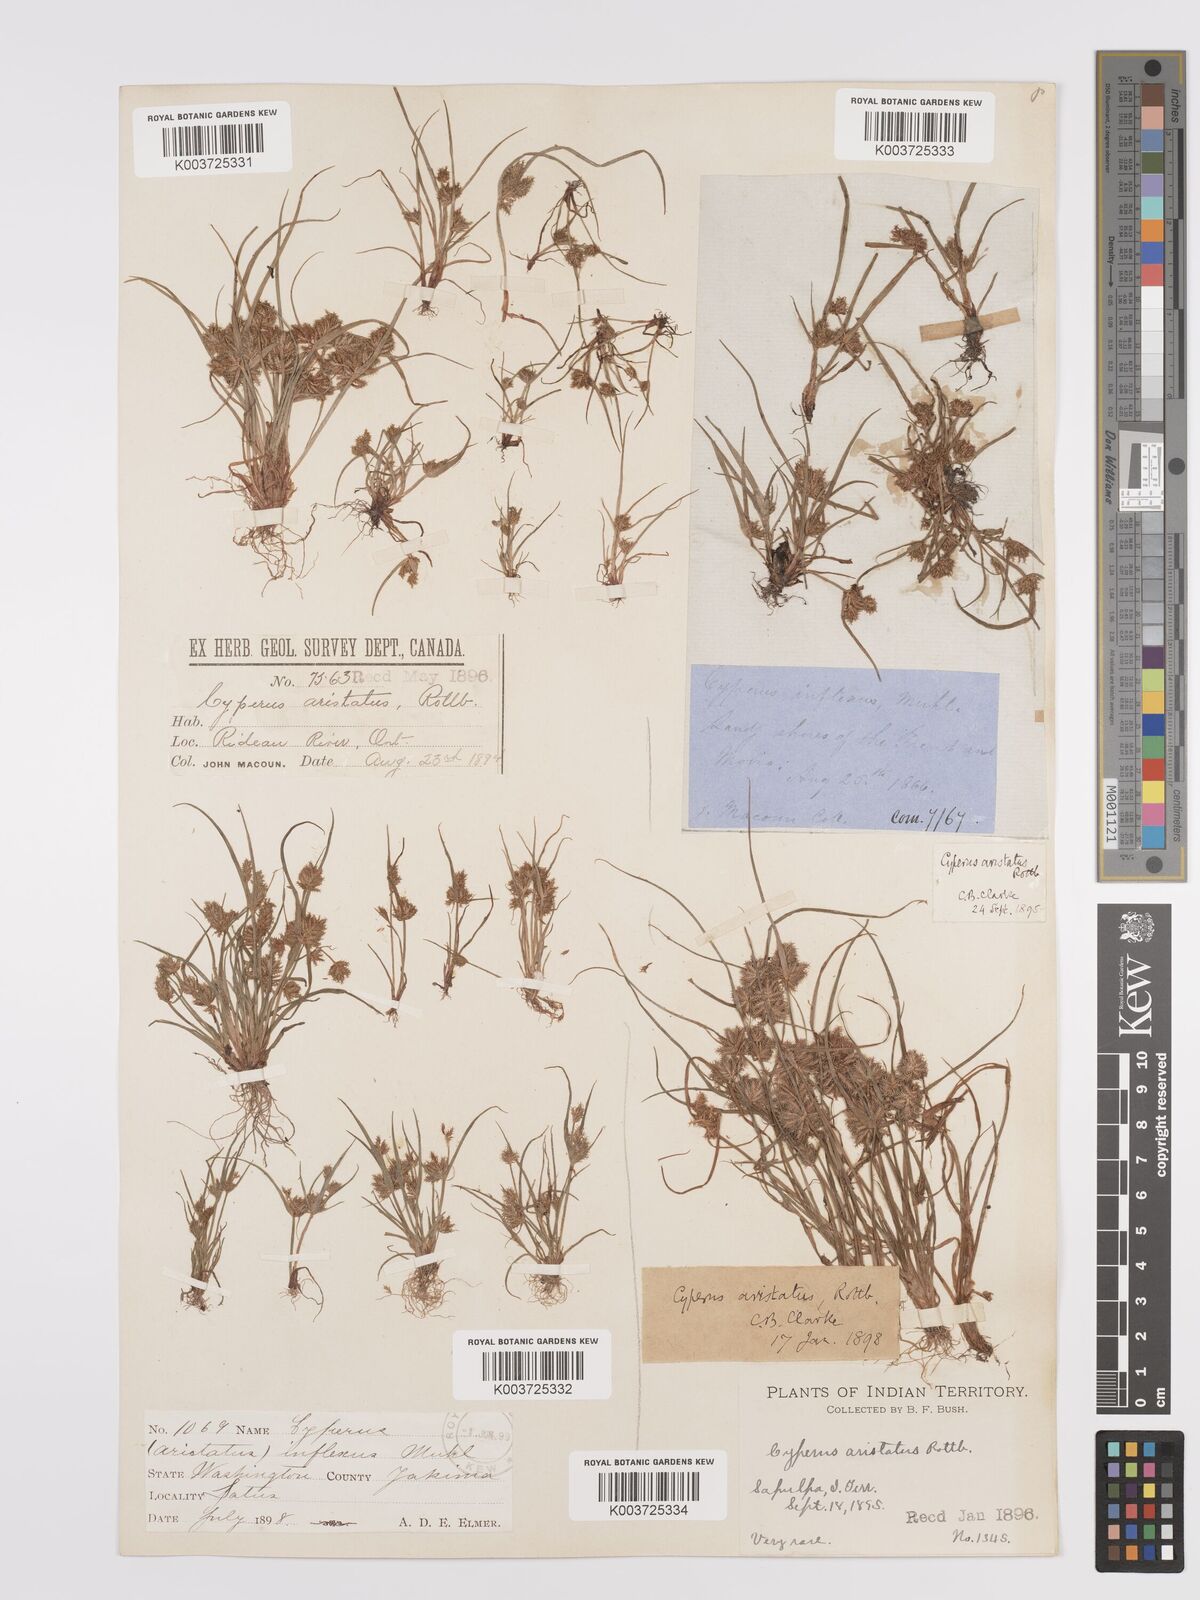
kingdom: Plantae
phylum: Tracheophyta
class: Liliopsida
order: Poales
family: Cyperaceae
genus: Cyperus
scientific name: Cyperus squarrosus
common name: Awned cyperus
